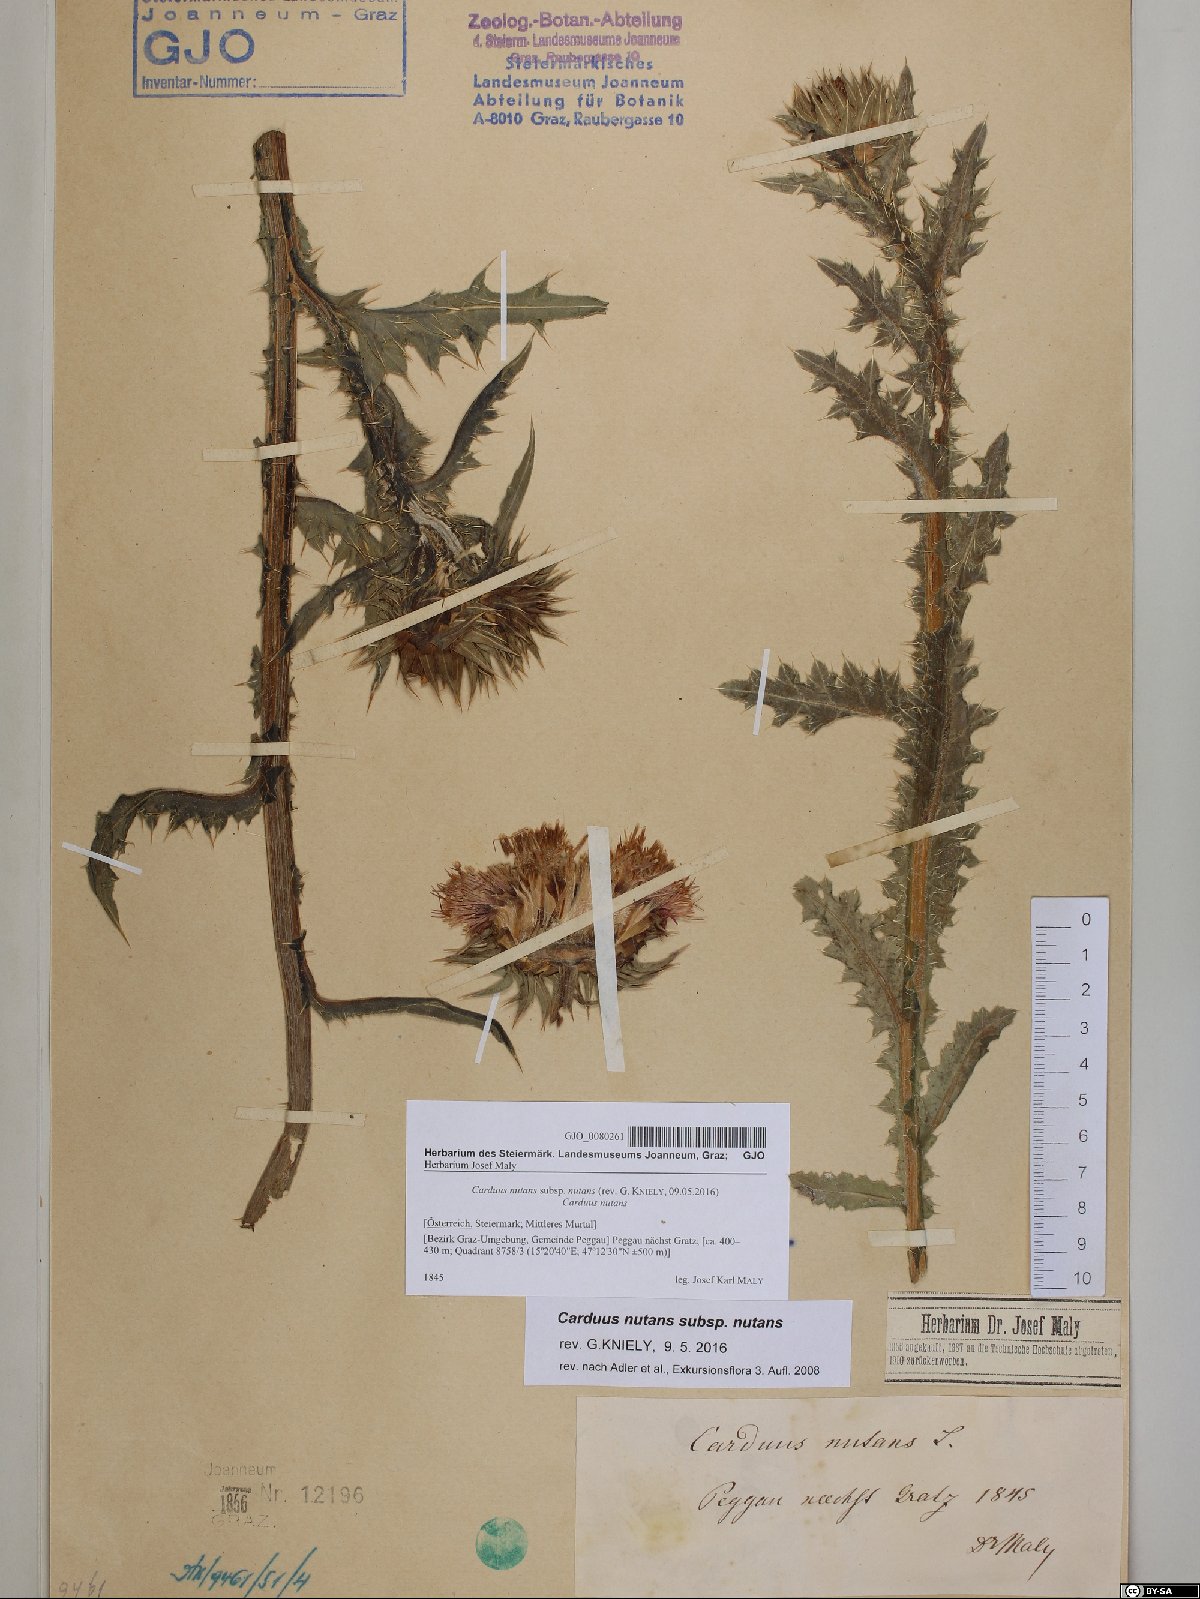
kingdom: Plantae
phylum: Tracheophyta
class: Magnoliopsida
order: Asterales
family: Asteraceae
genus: Carduus
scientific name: Carduus nutans
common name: Musk thistle
